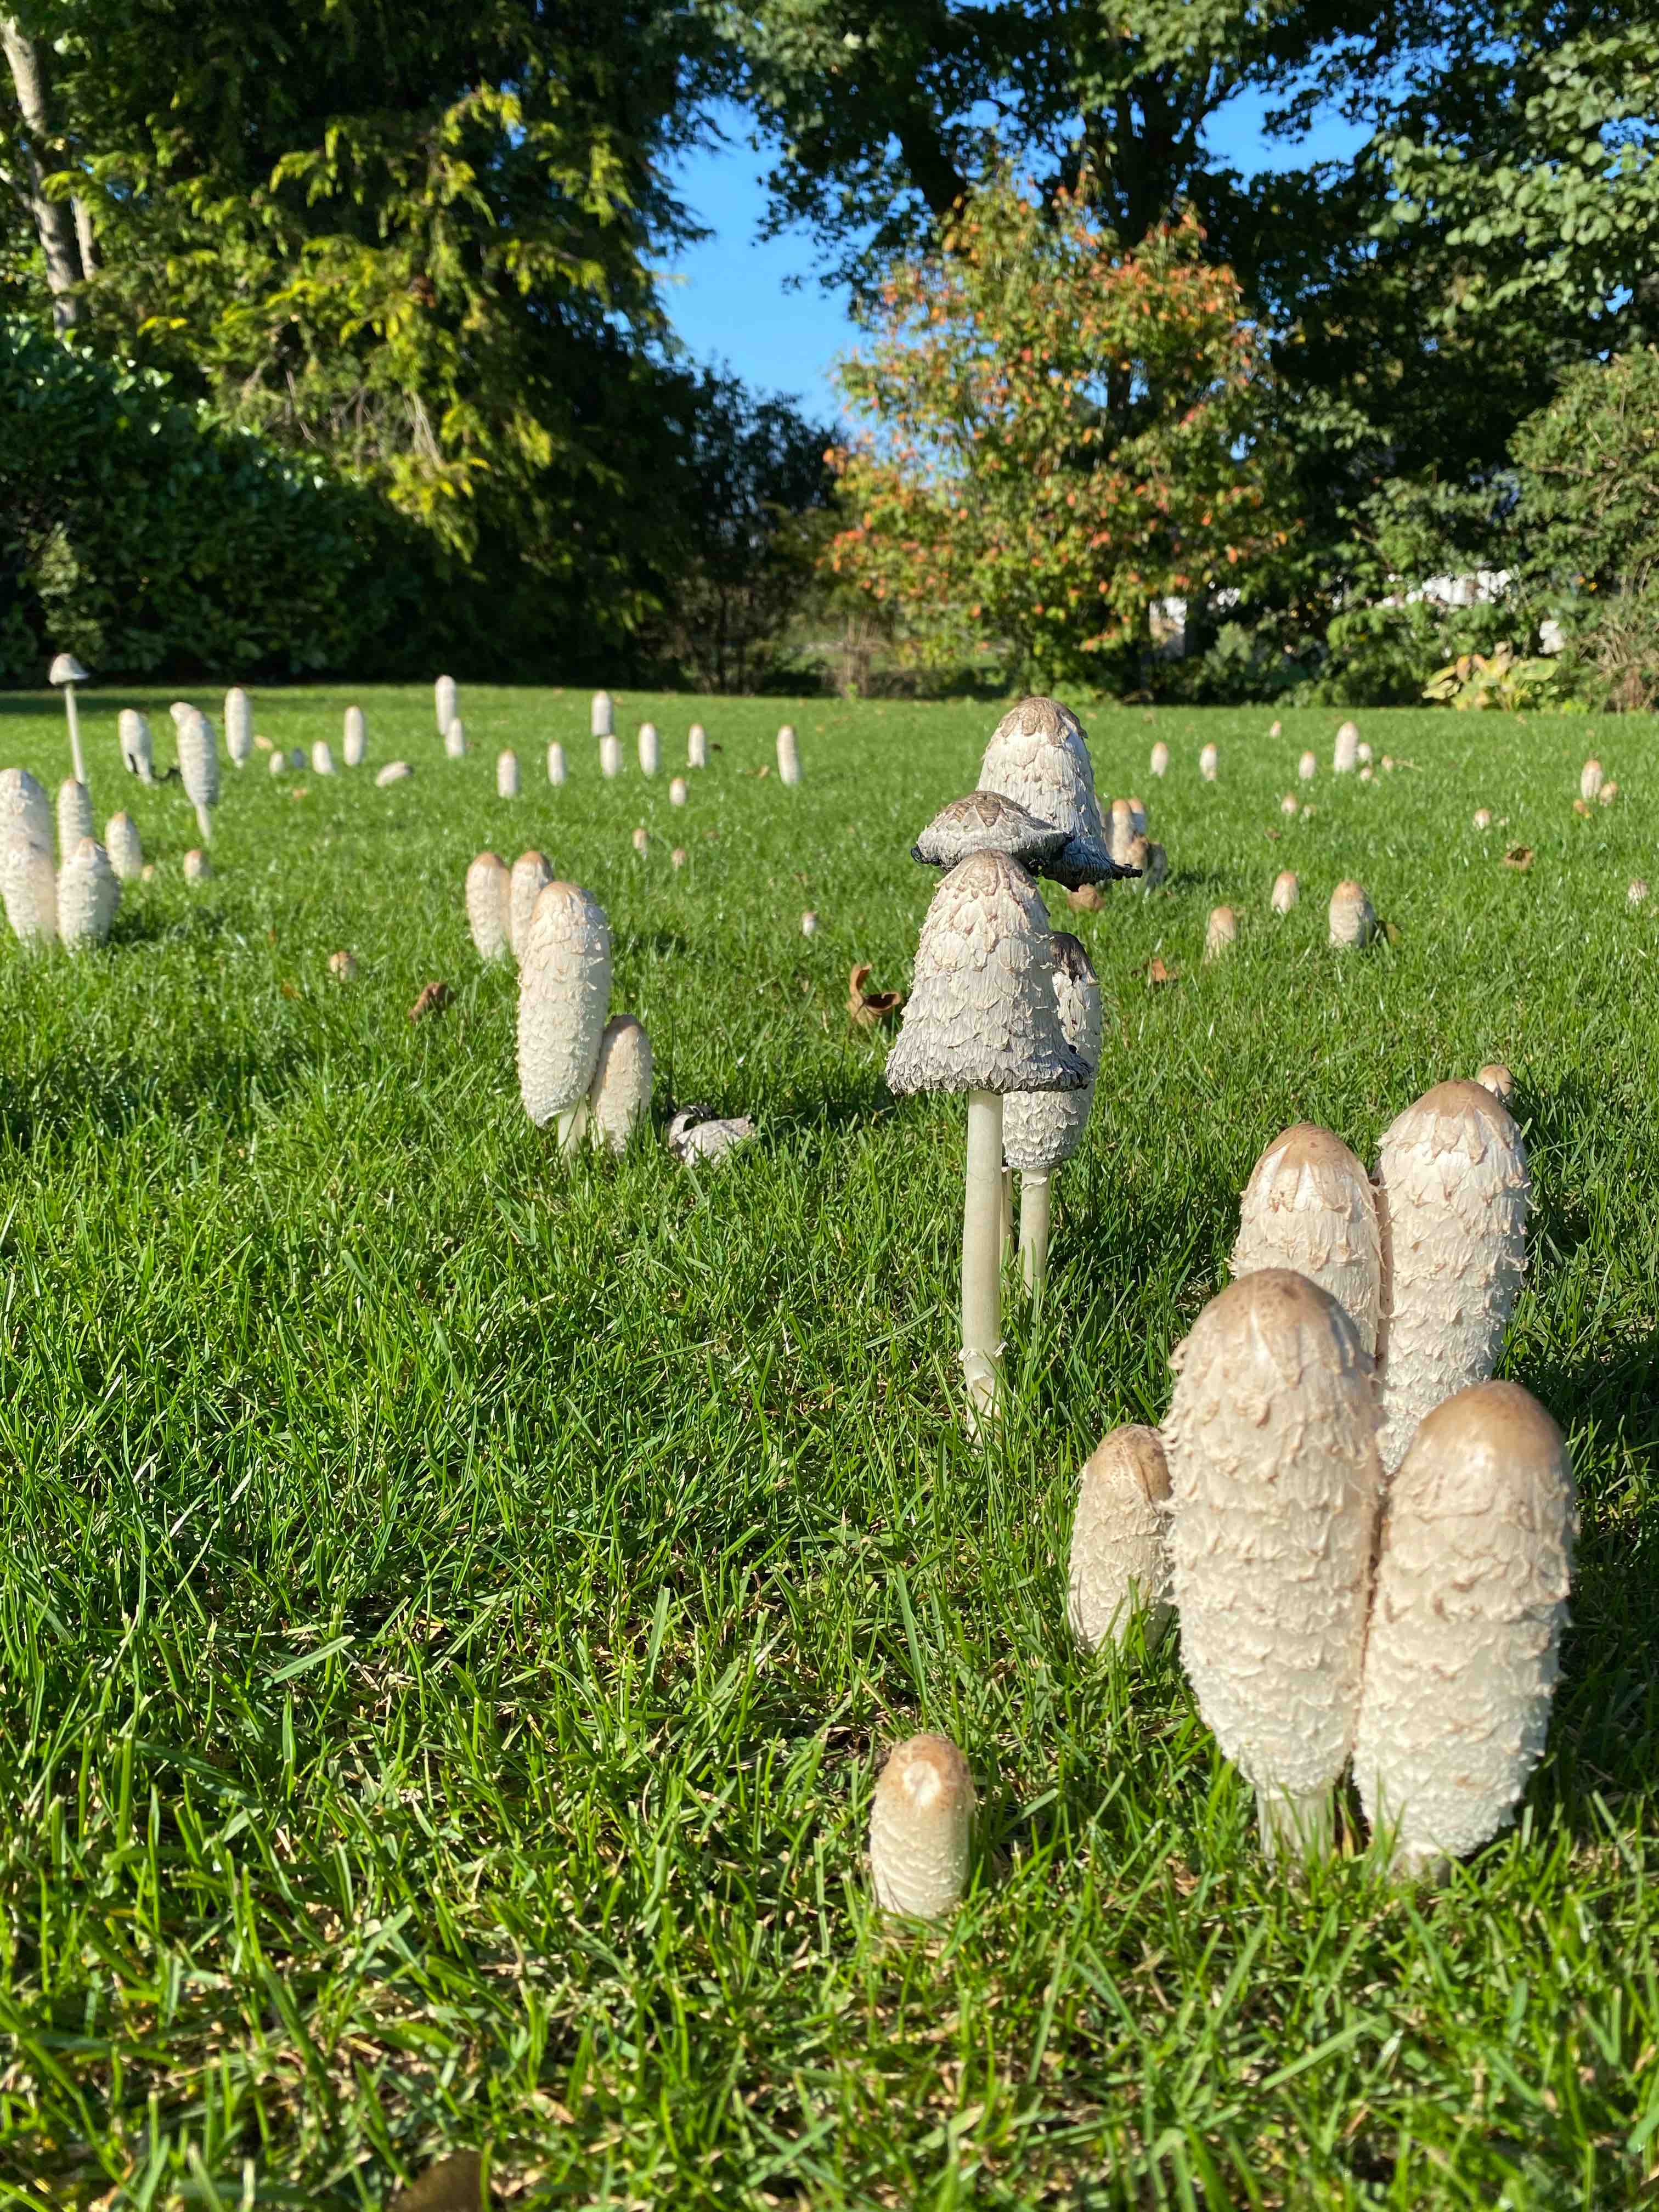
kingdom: Fungi
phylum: Basidiomycota
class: Agaricomycetes
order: Agaricales
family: Agaricaceae
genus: Coprinus
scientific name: Coprinus comatus
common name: stor parykhat
